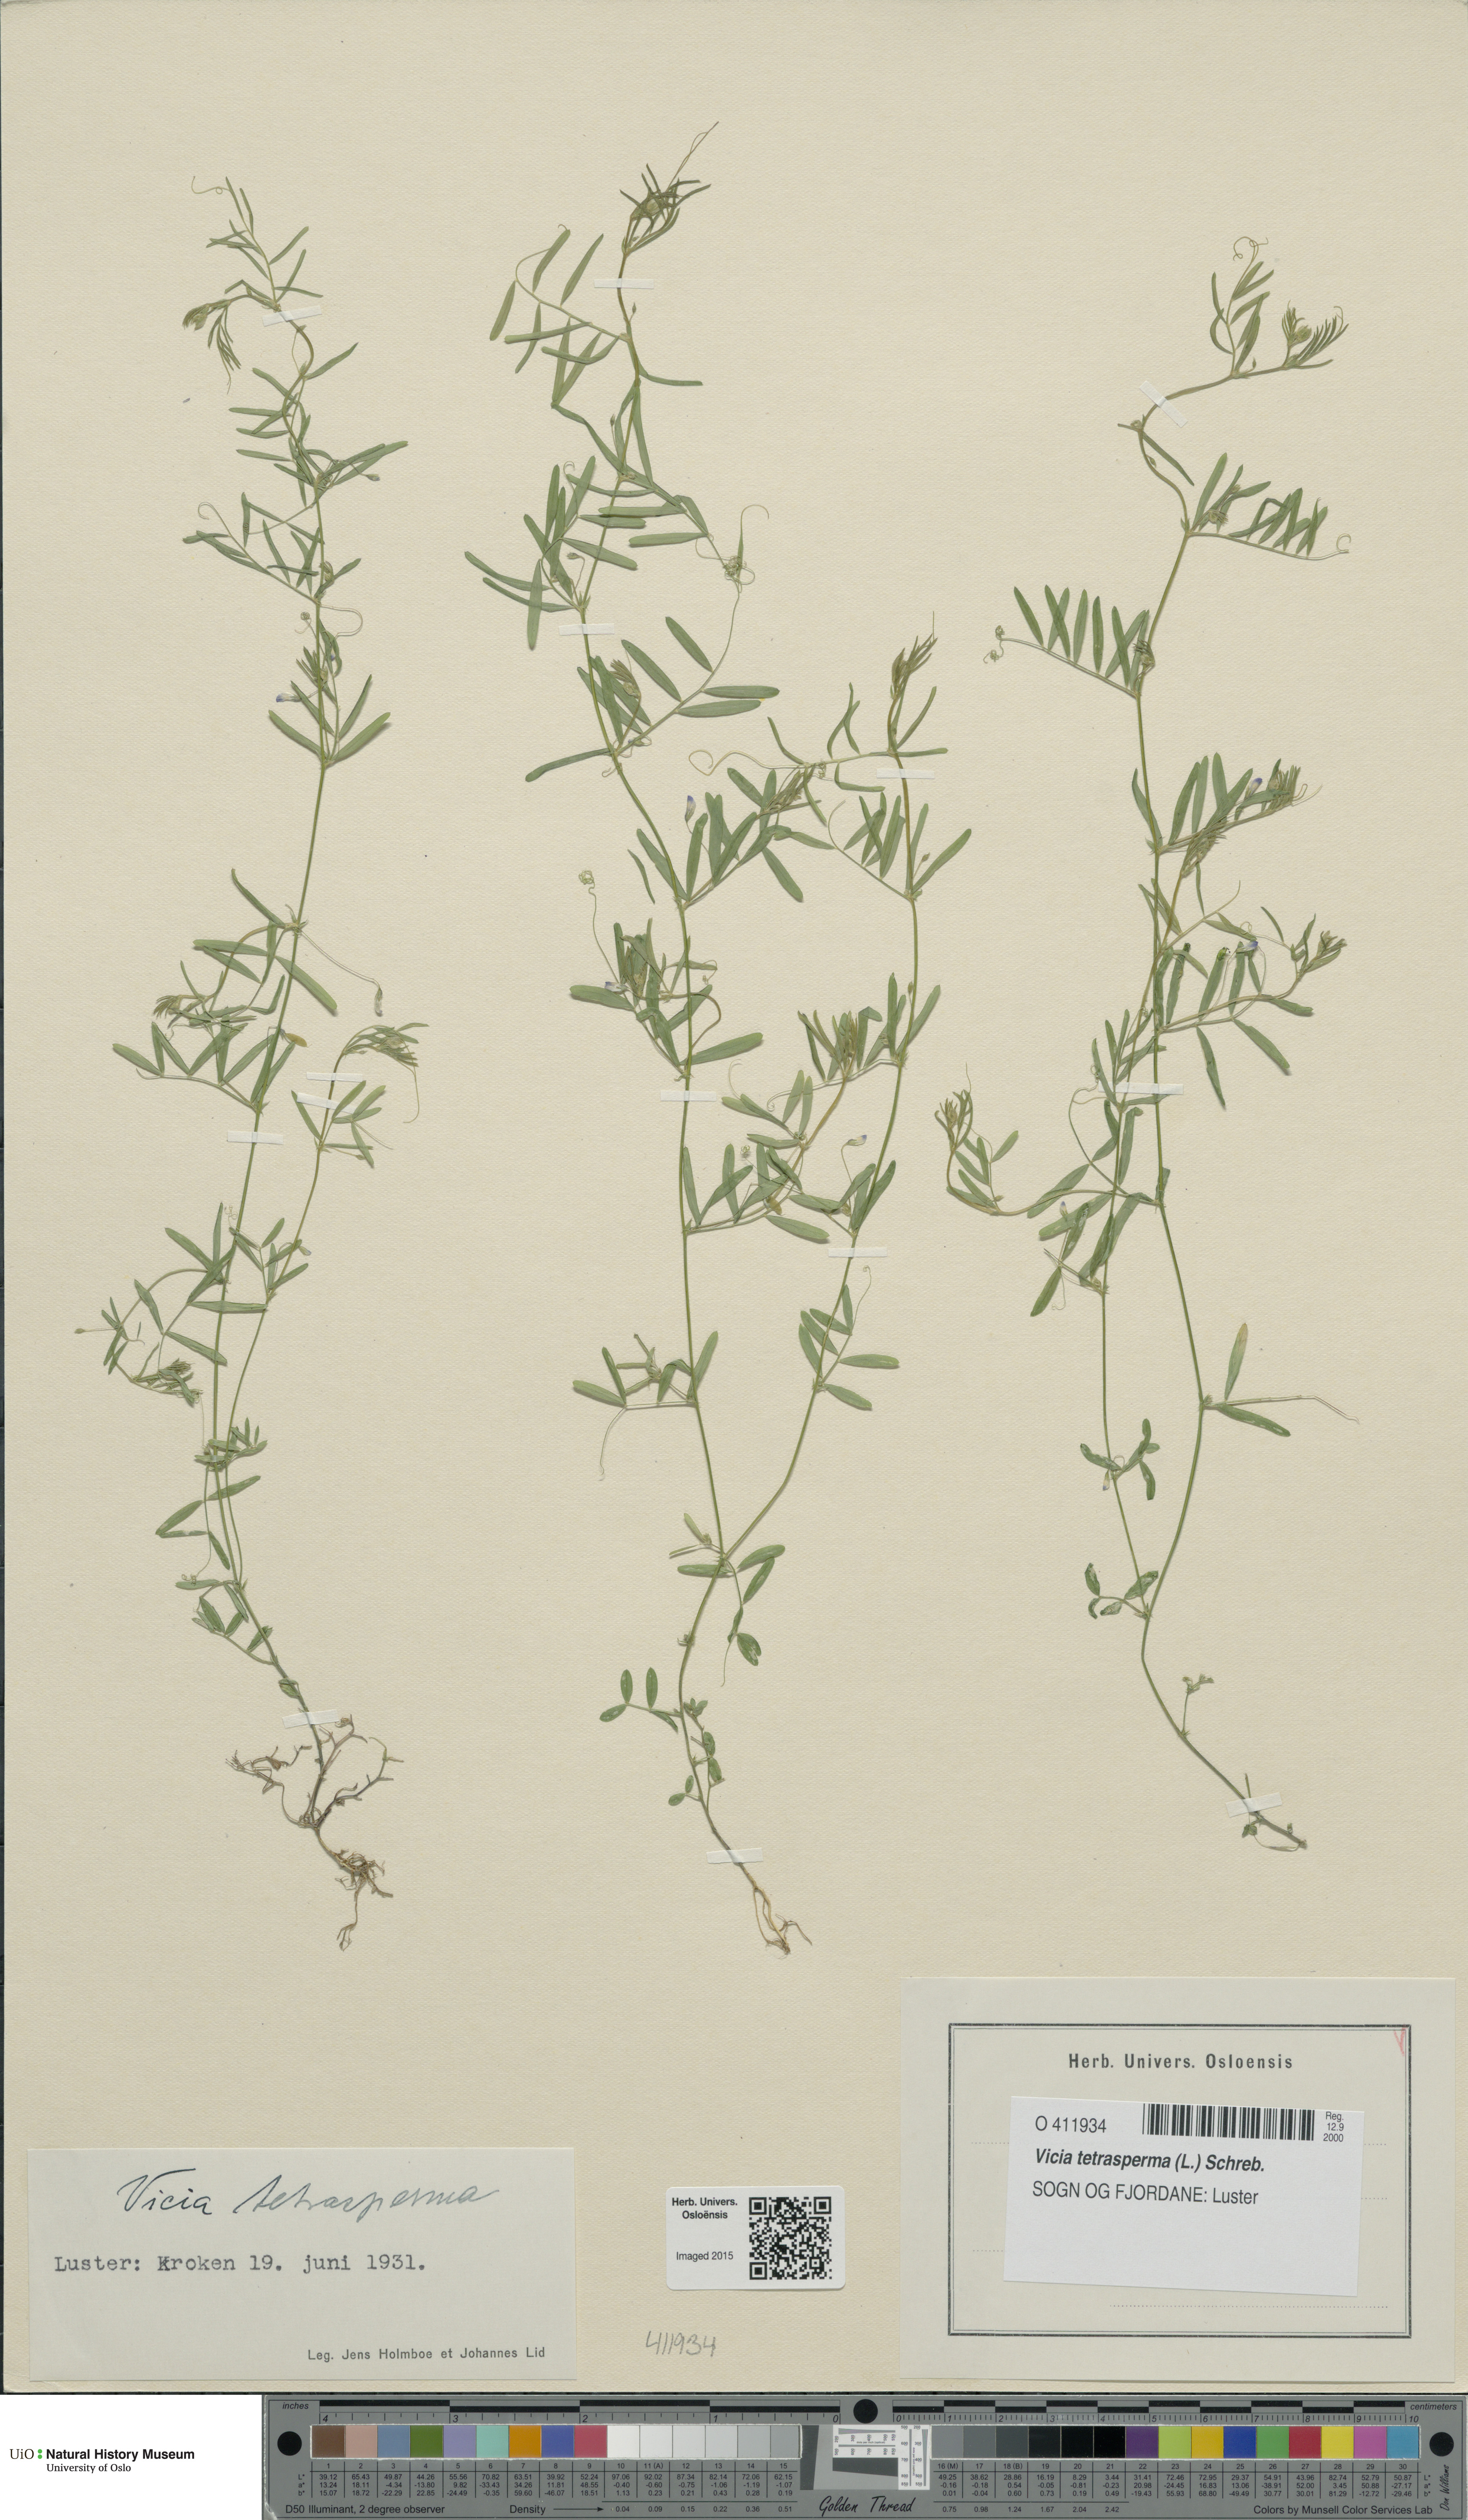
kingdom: Plantae
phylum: Tracheophyta
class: Magnoliopsida
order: Fabales
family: Fabaceae
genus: Vicia
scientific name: Vicia tetrasperma
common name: Smooth tare
